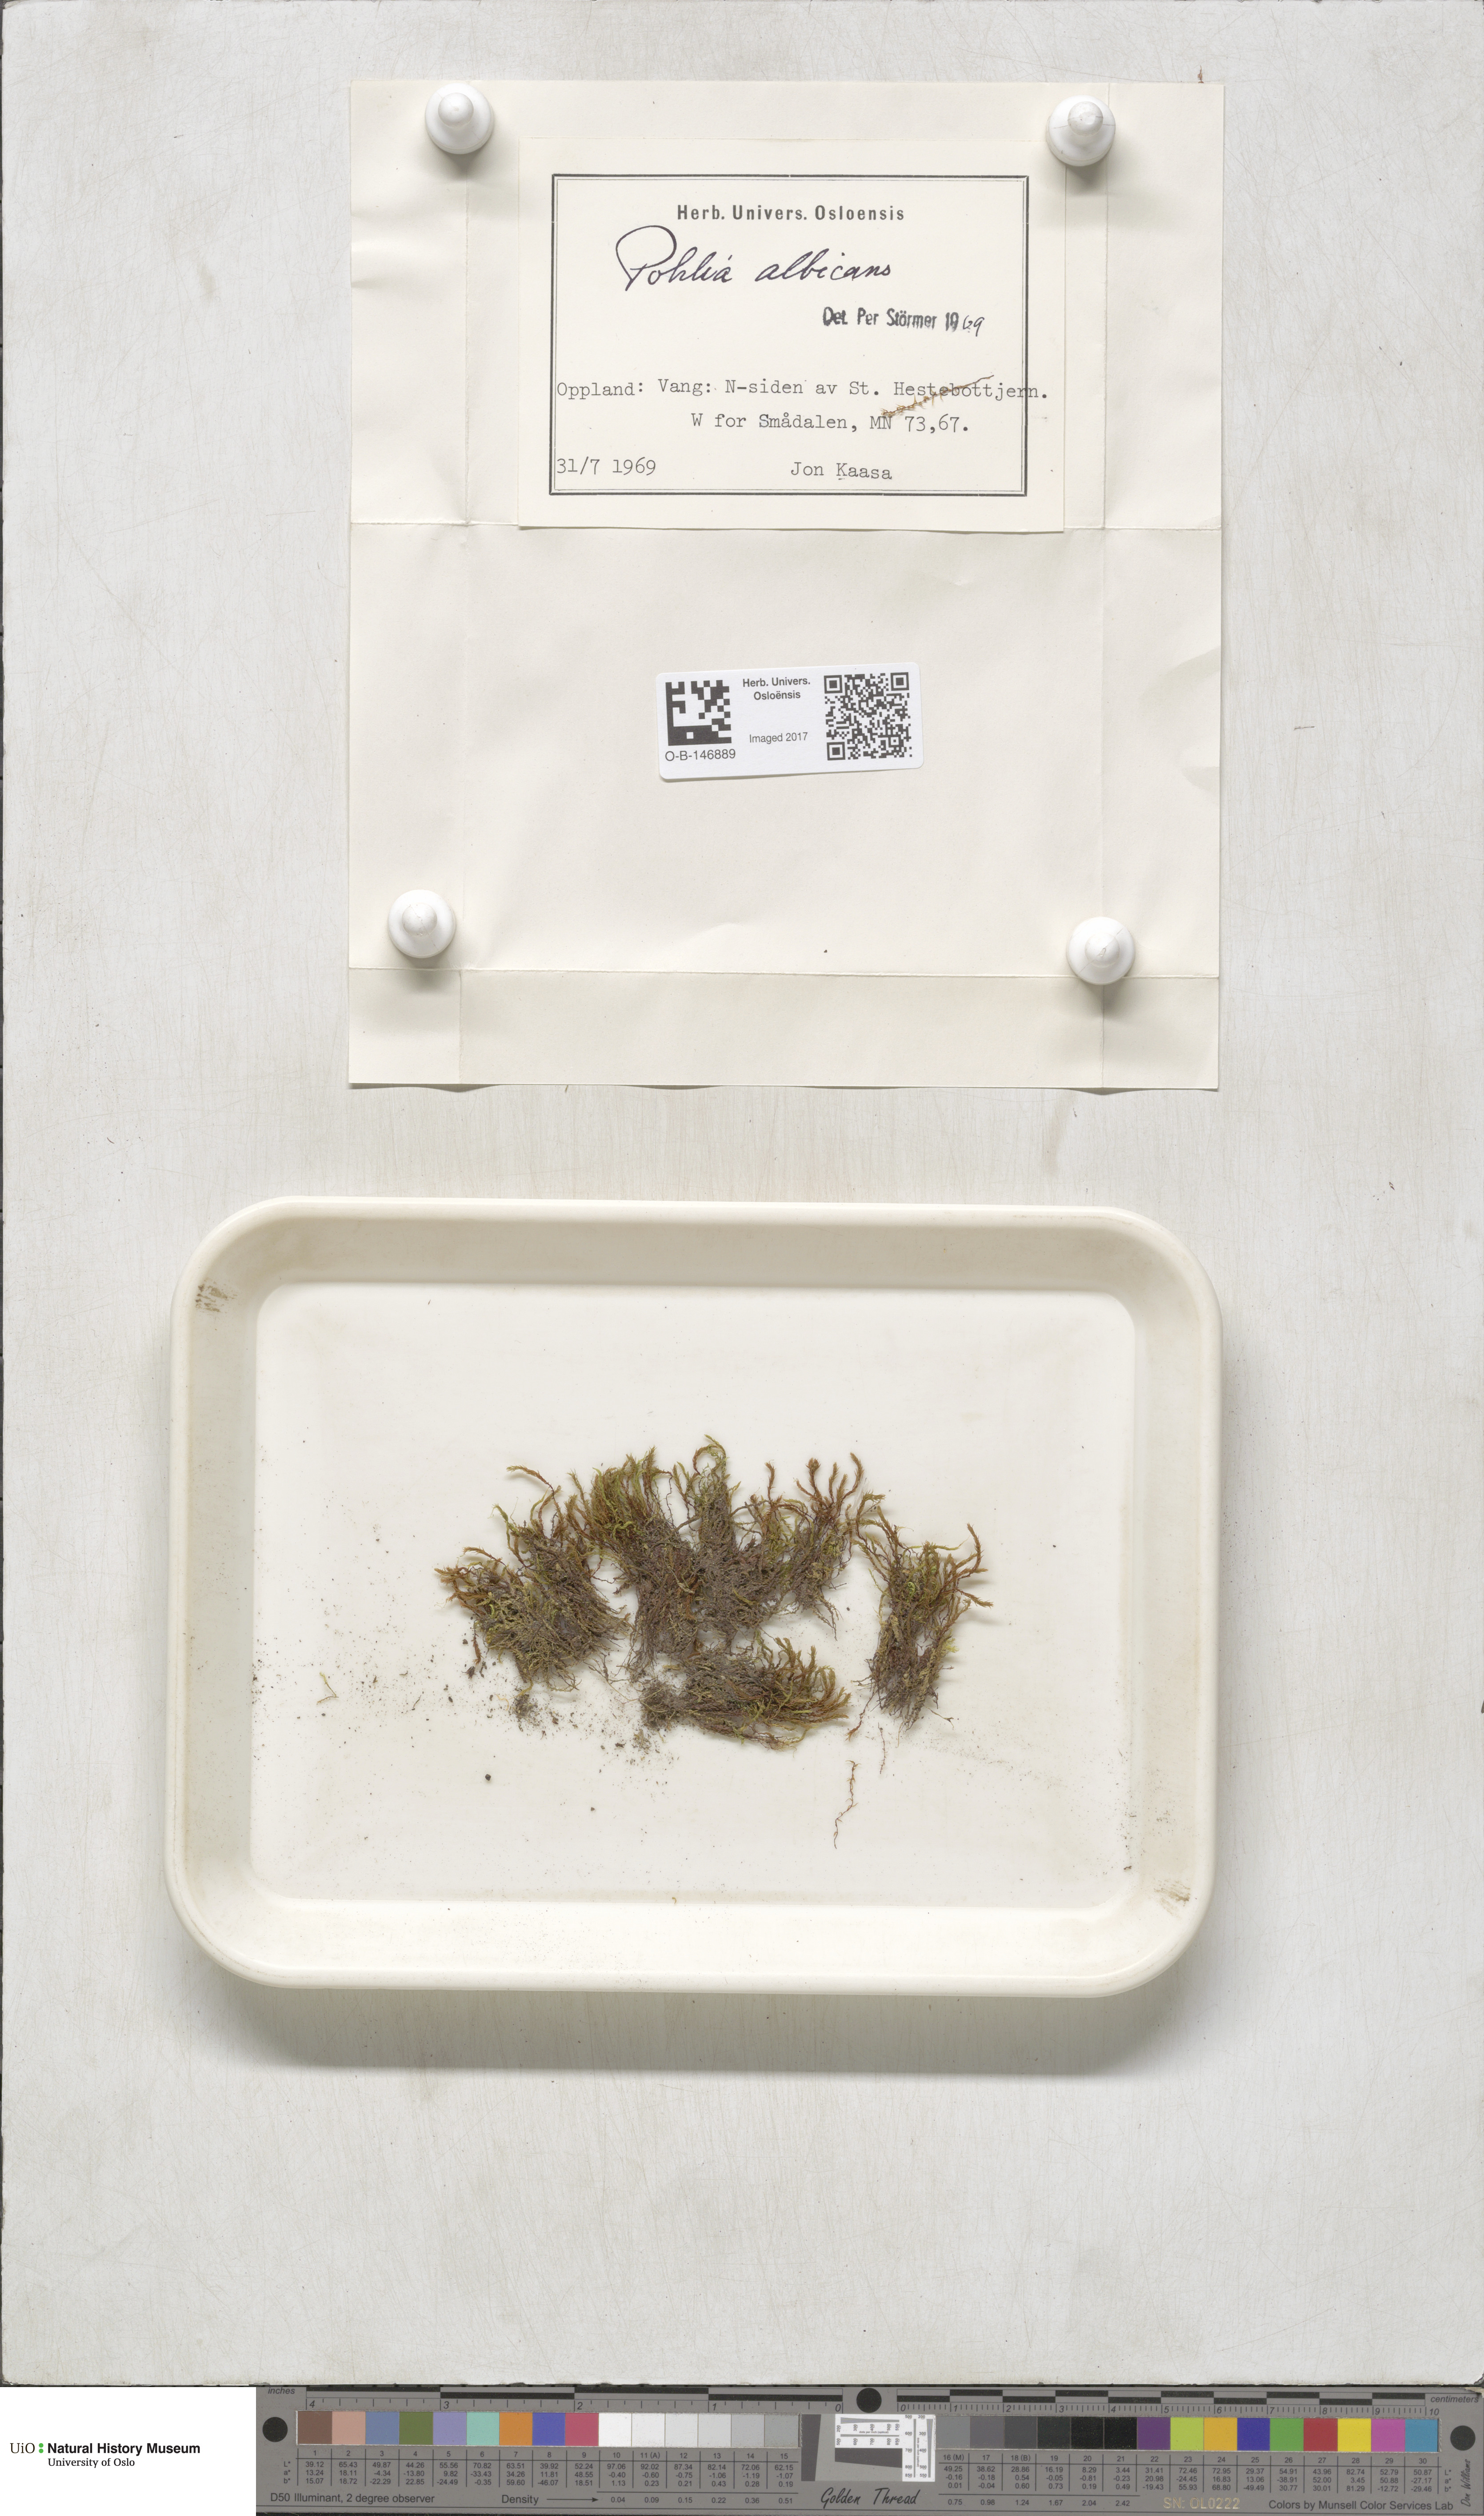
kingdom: Plantae
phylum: Bryophyta
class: Bryopsida
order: Bryales
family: Mniaceae
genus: Pohlia
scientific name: Pohlia wahlenbergii
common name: Wahlenberg's nodding moss
